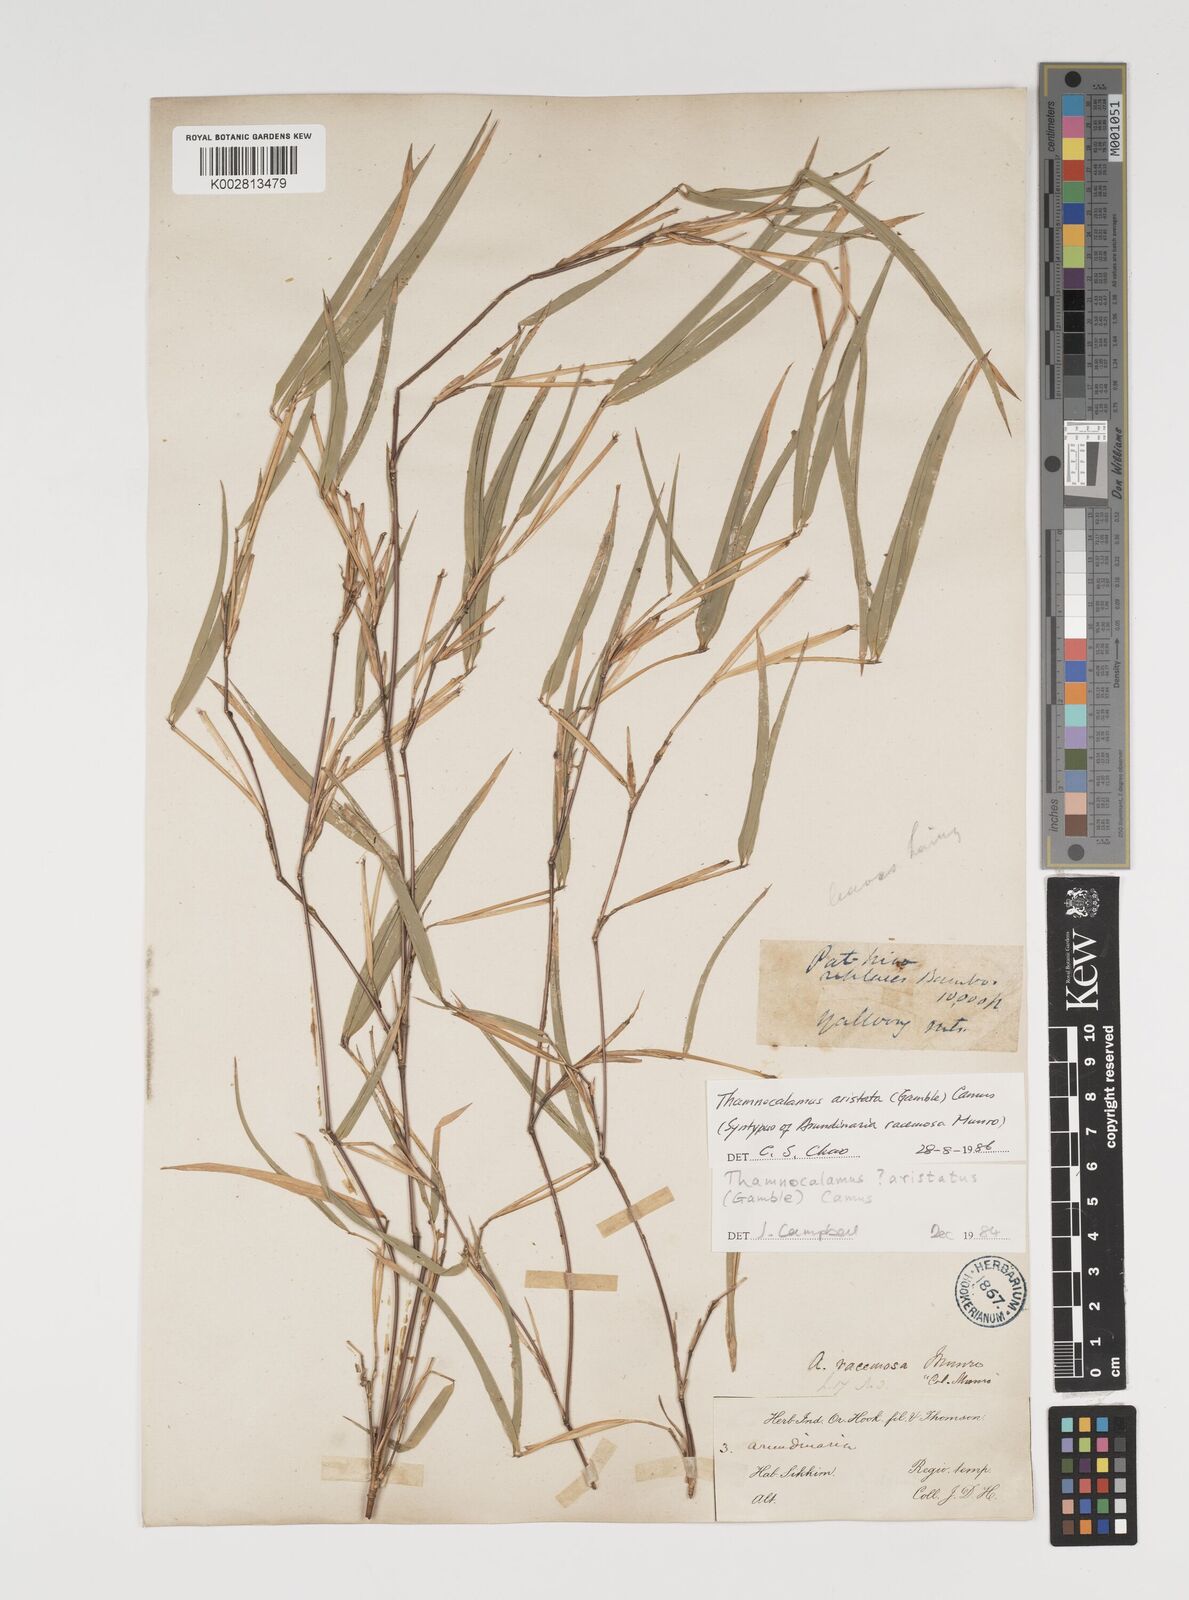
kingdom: Plantae
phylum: Tracheophyta
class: Liliopsida
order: Poales
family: Poaceae
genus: Thamnocalamus
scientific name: Thamnocalamus spathiflorus
